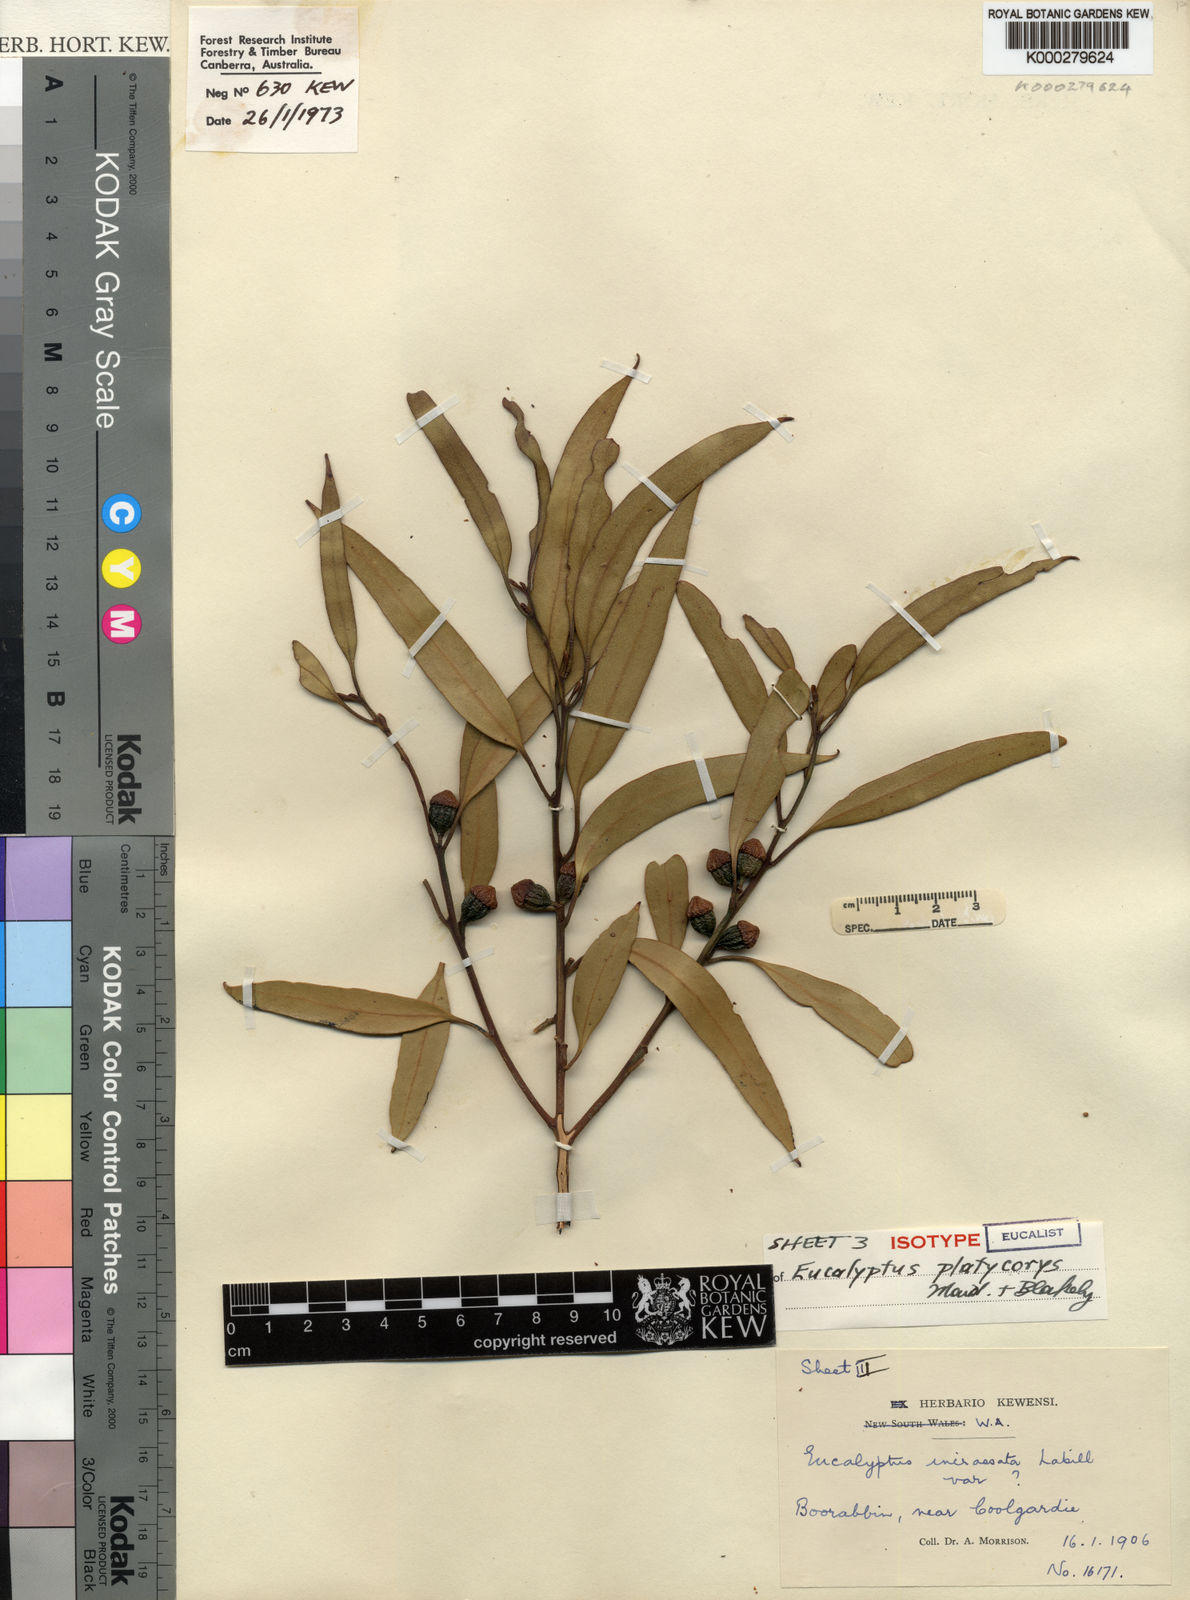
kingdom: Plantae
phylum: Tracheophyta
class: Magnoliopsida
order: Myrtales
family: Myrtaceae
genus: Eucalyptus
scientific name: Eucalyptus platycorys
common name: Boorabbin mallee
